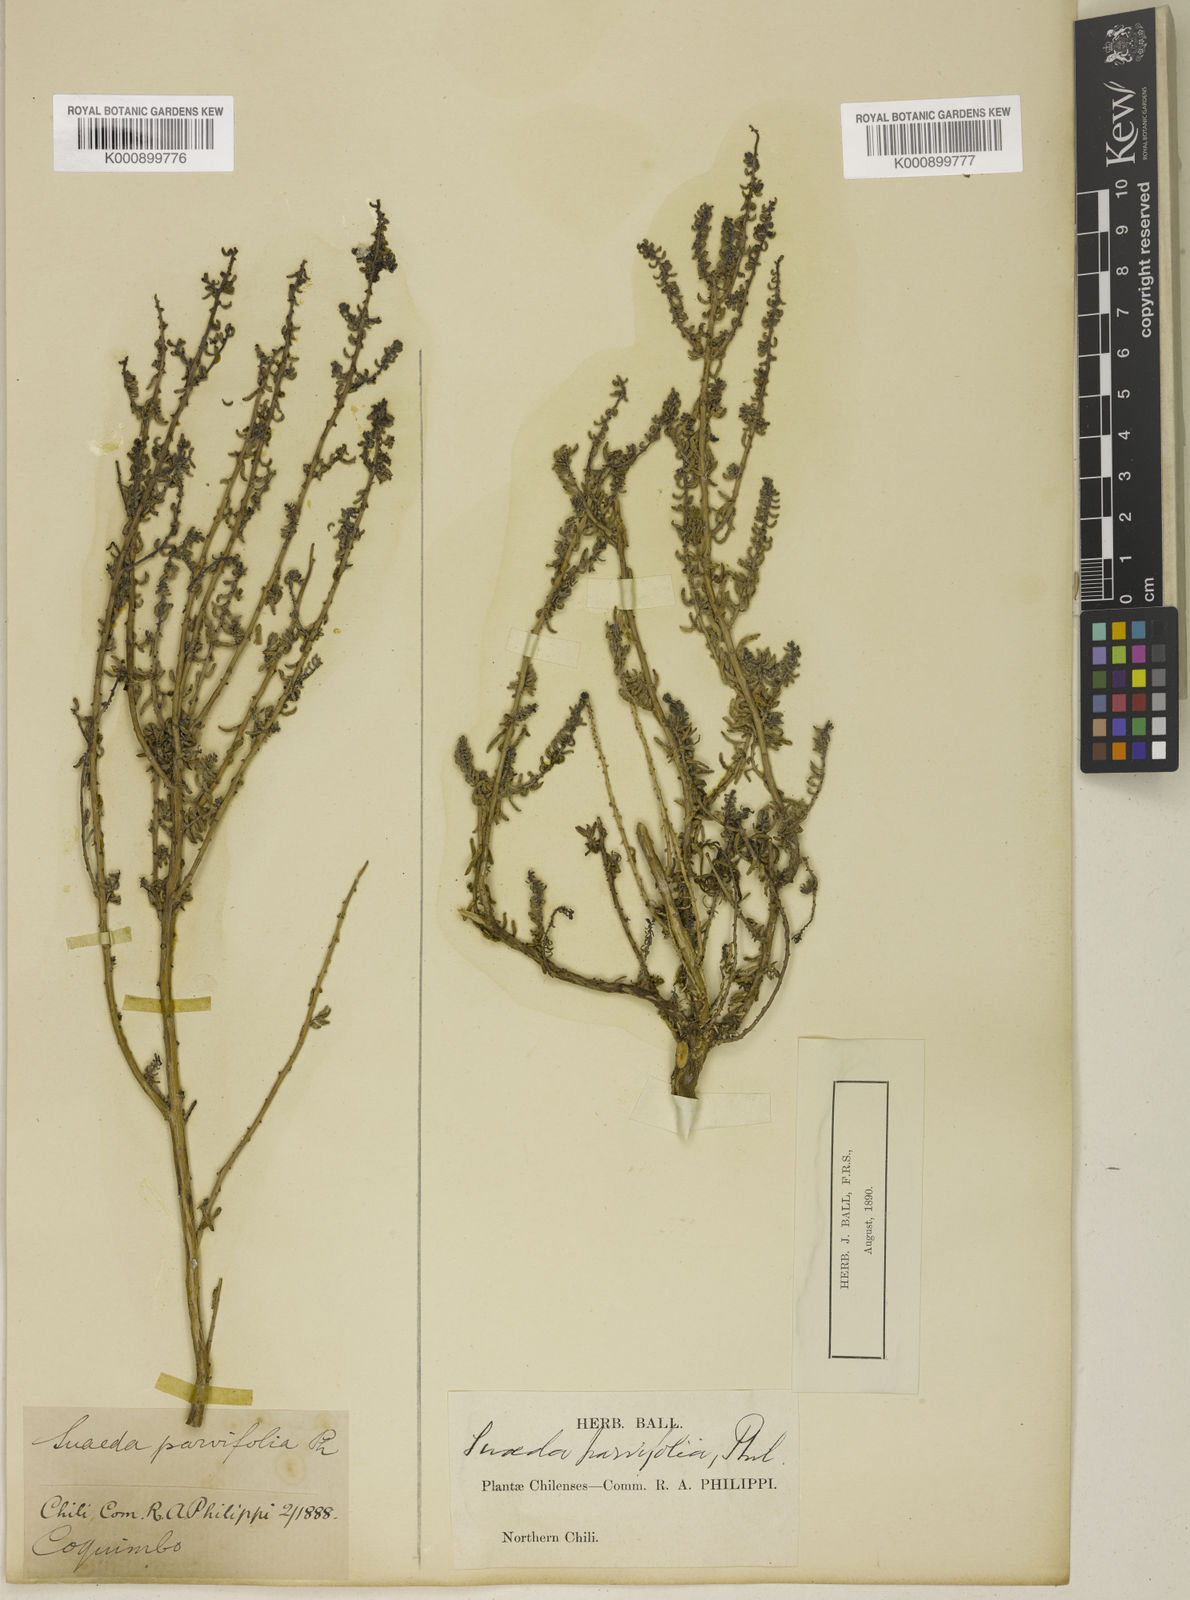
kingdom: Plantae
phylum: Tracheophyta
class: Magnoliopsida
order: Caryophyllales
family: Amaranthaceae
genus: Suaeda
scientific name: Suaeda foliosa
